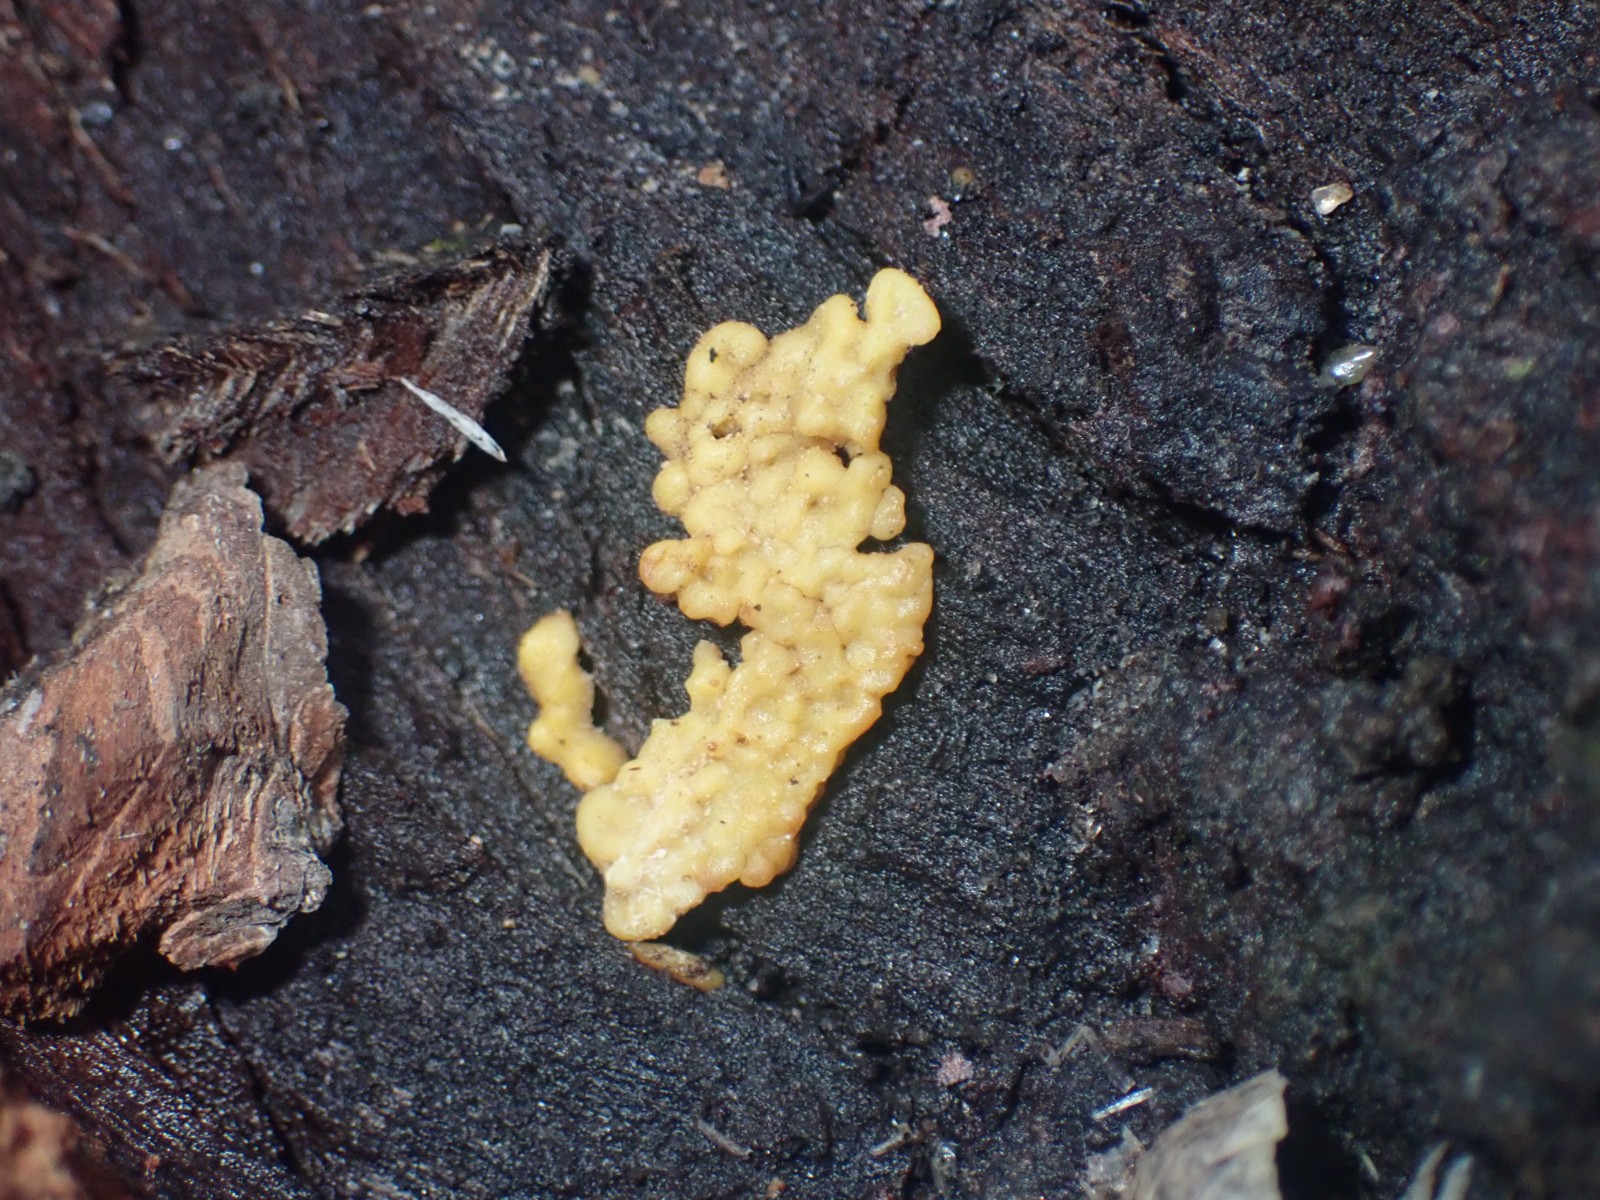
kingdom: Protozoa
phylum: Mycetozoa
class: Myxomycetes
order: Trichiales
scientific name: Trichiales
